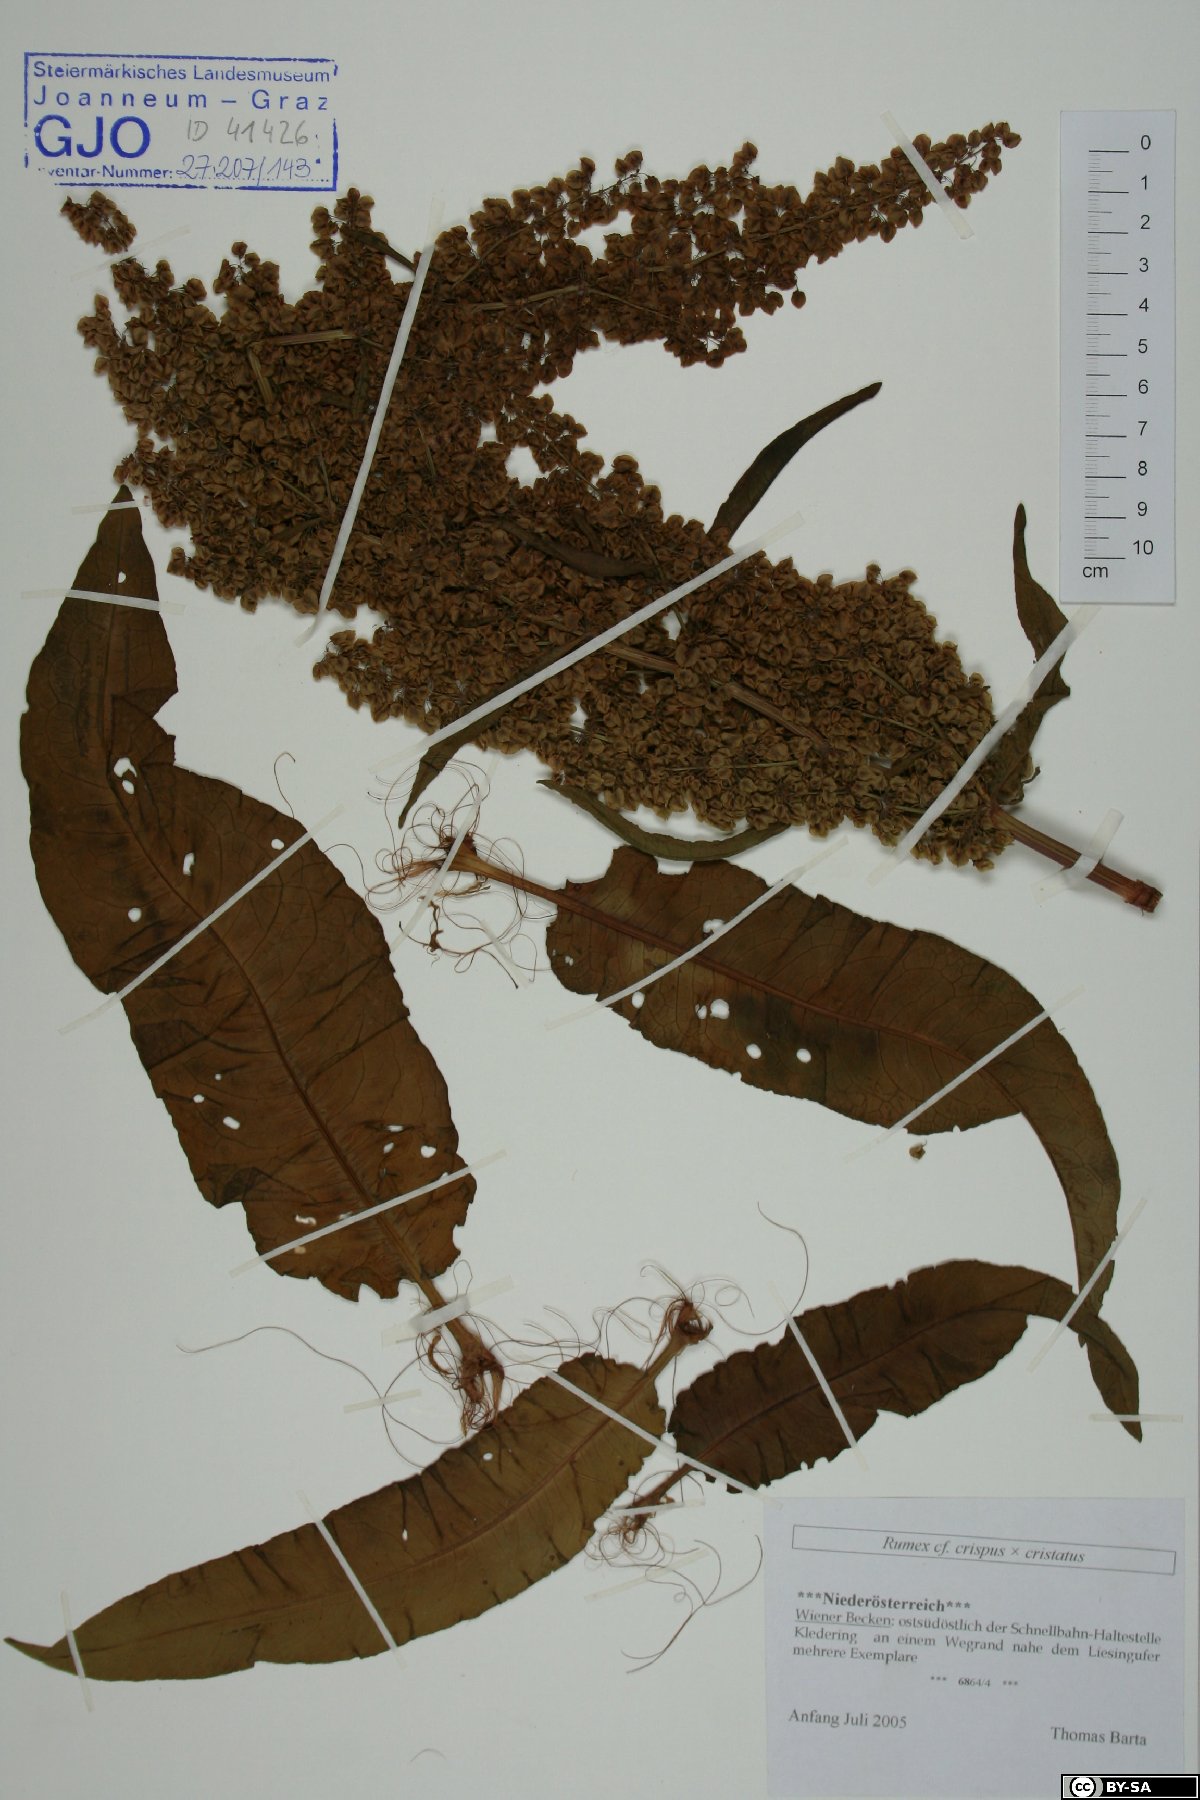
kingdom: Plantae
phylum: Tracheophyta
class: Magnoliopsida
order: Caryophyllales
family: Polygonaceae
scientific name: Polygonaceae
